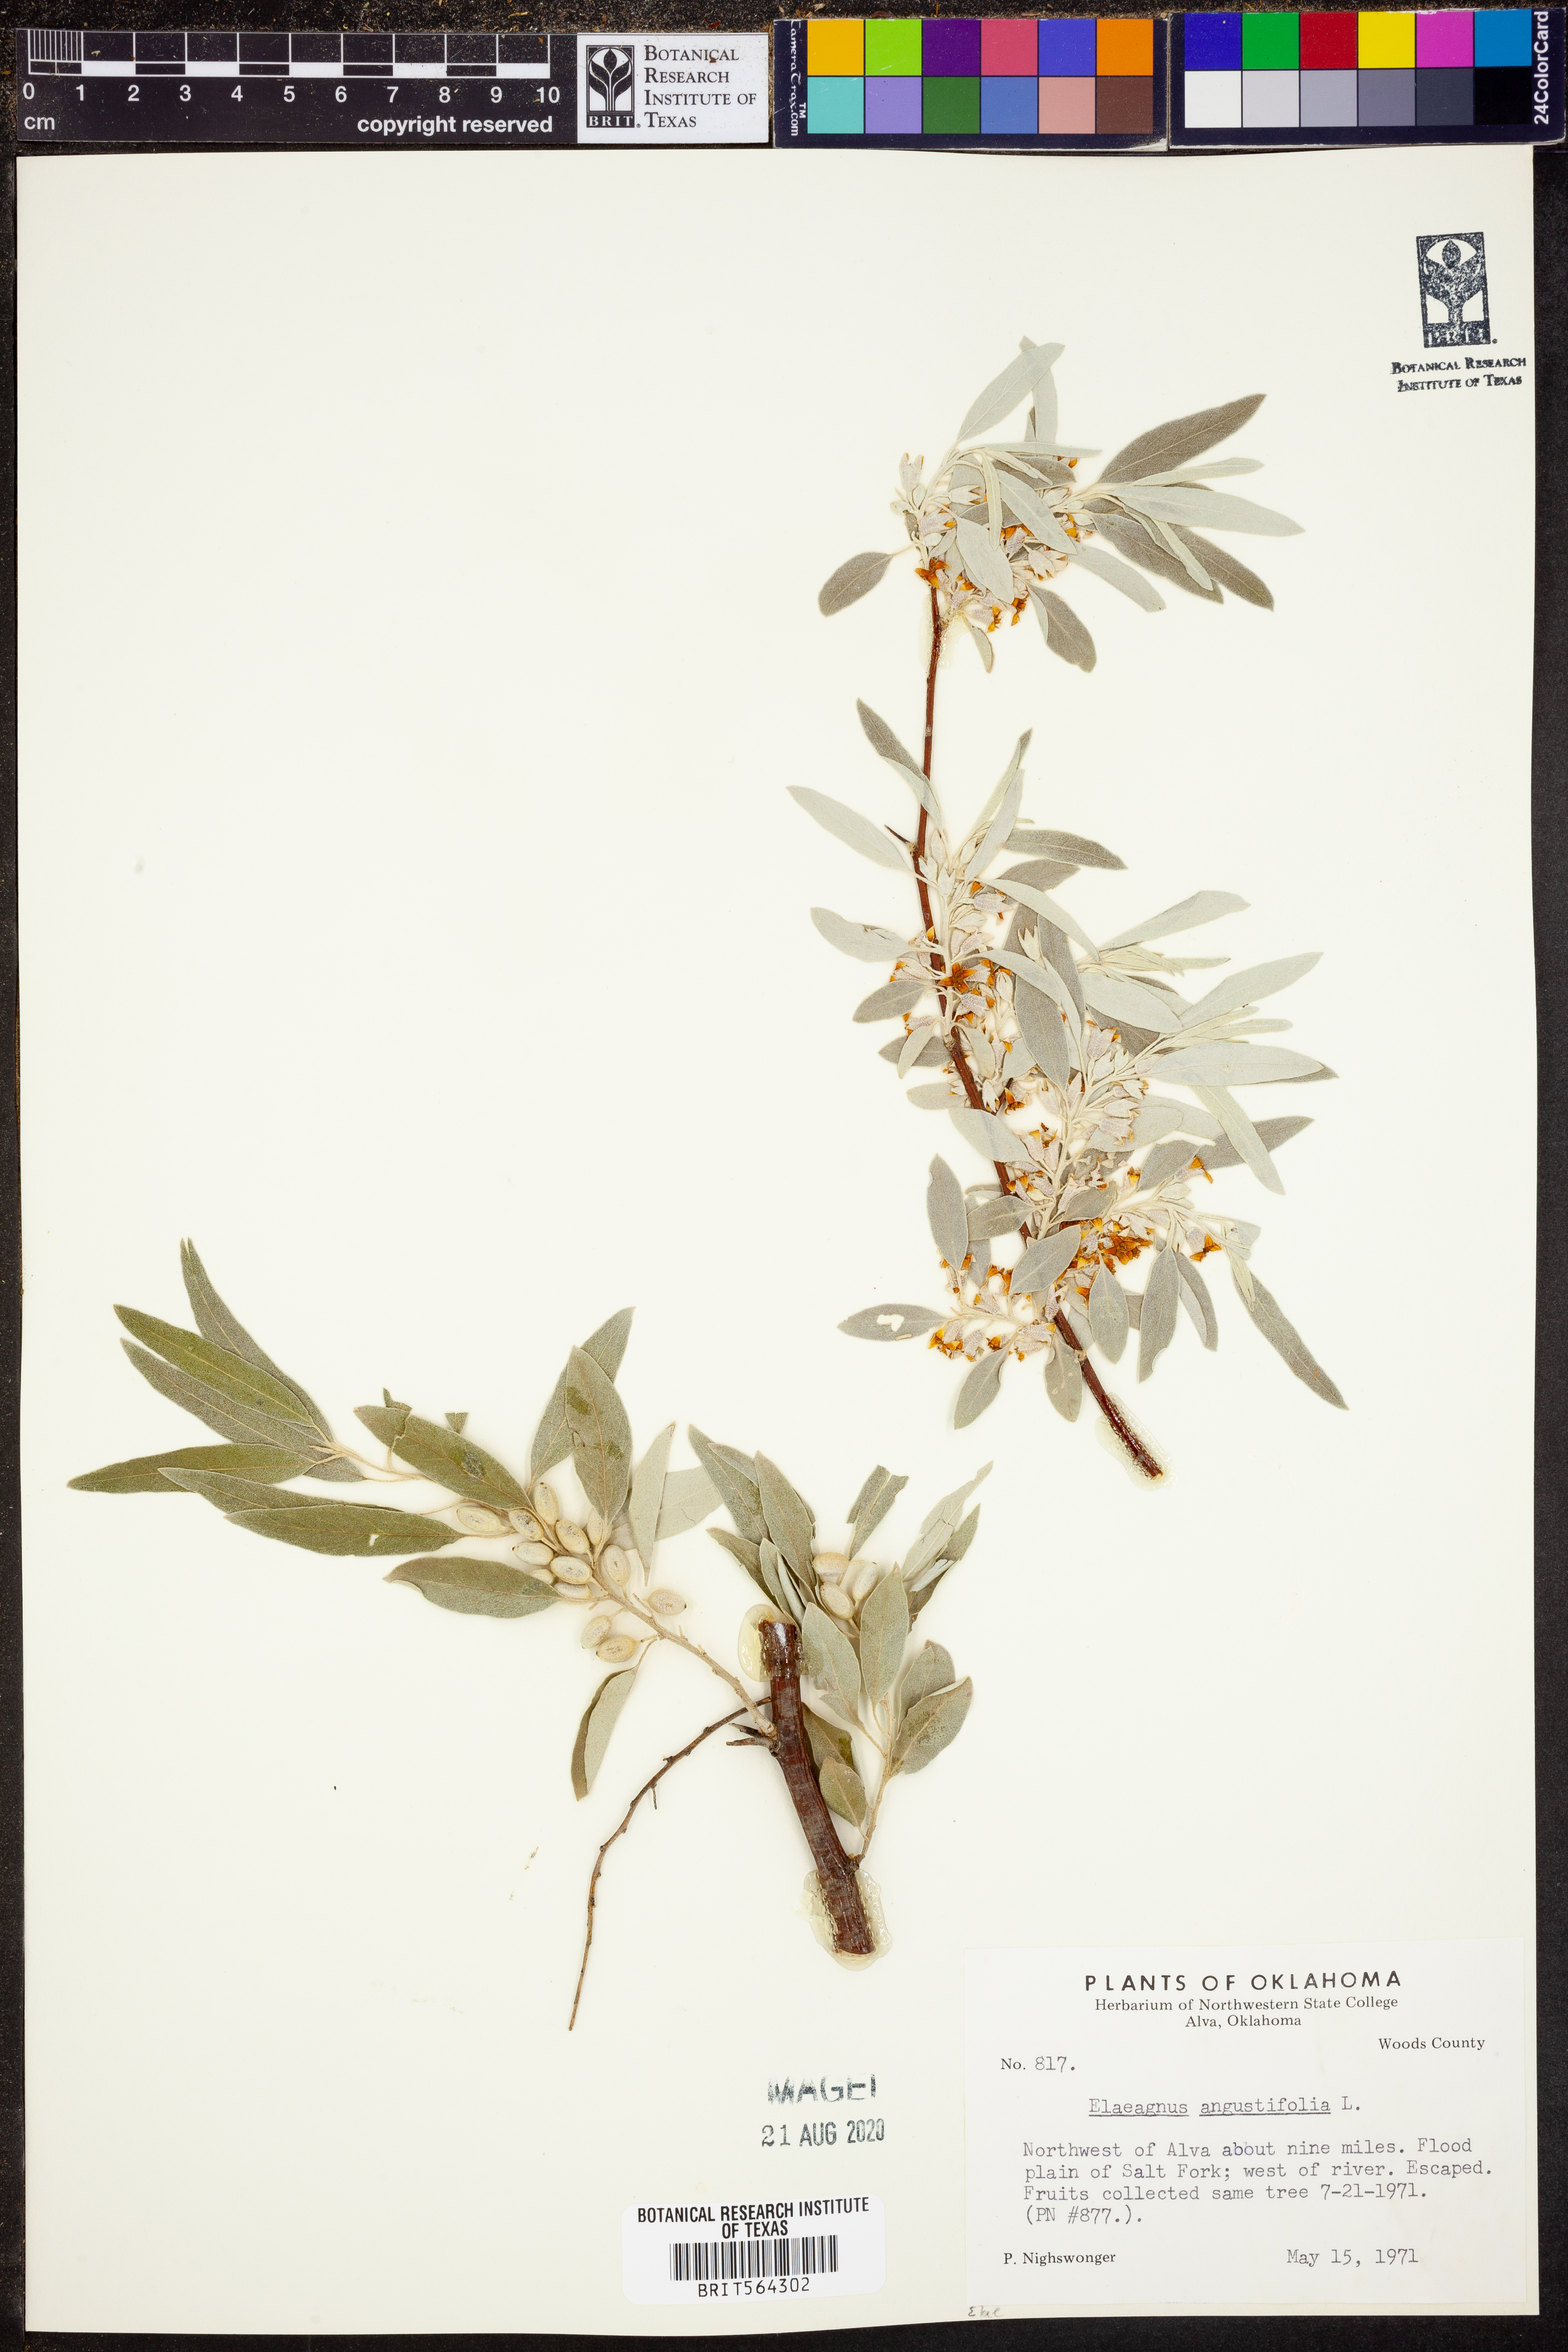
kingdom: Plantae
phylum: Tracheophyta
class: Magnoliopsida
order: Rosales
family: Elaeagnaceae
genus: Elaeagnus
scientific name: Elaeagnus angustifolia
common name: Russian olive
